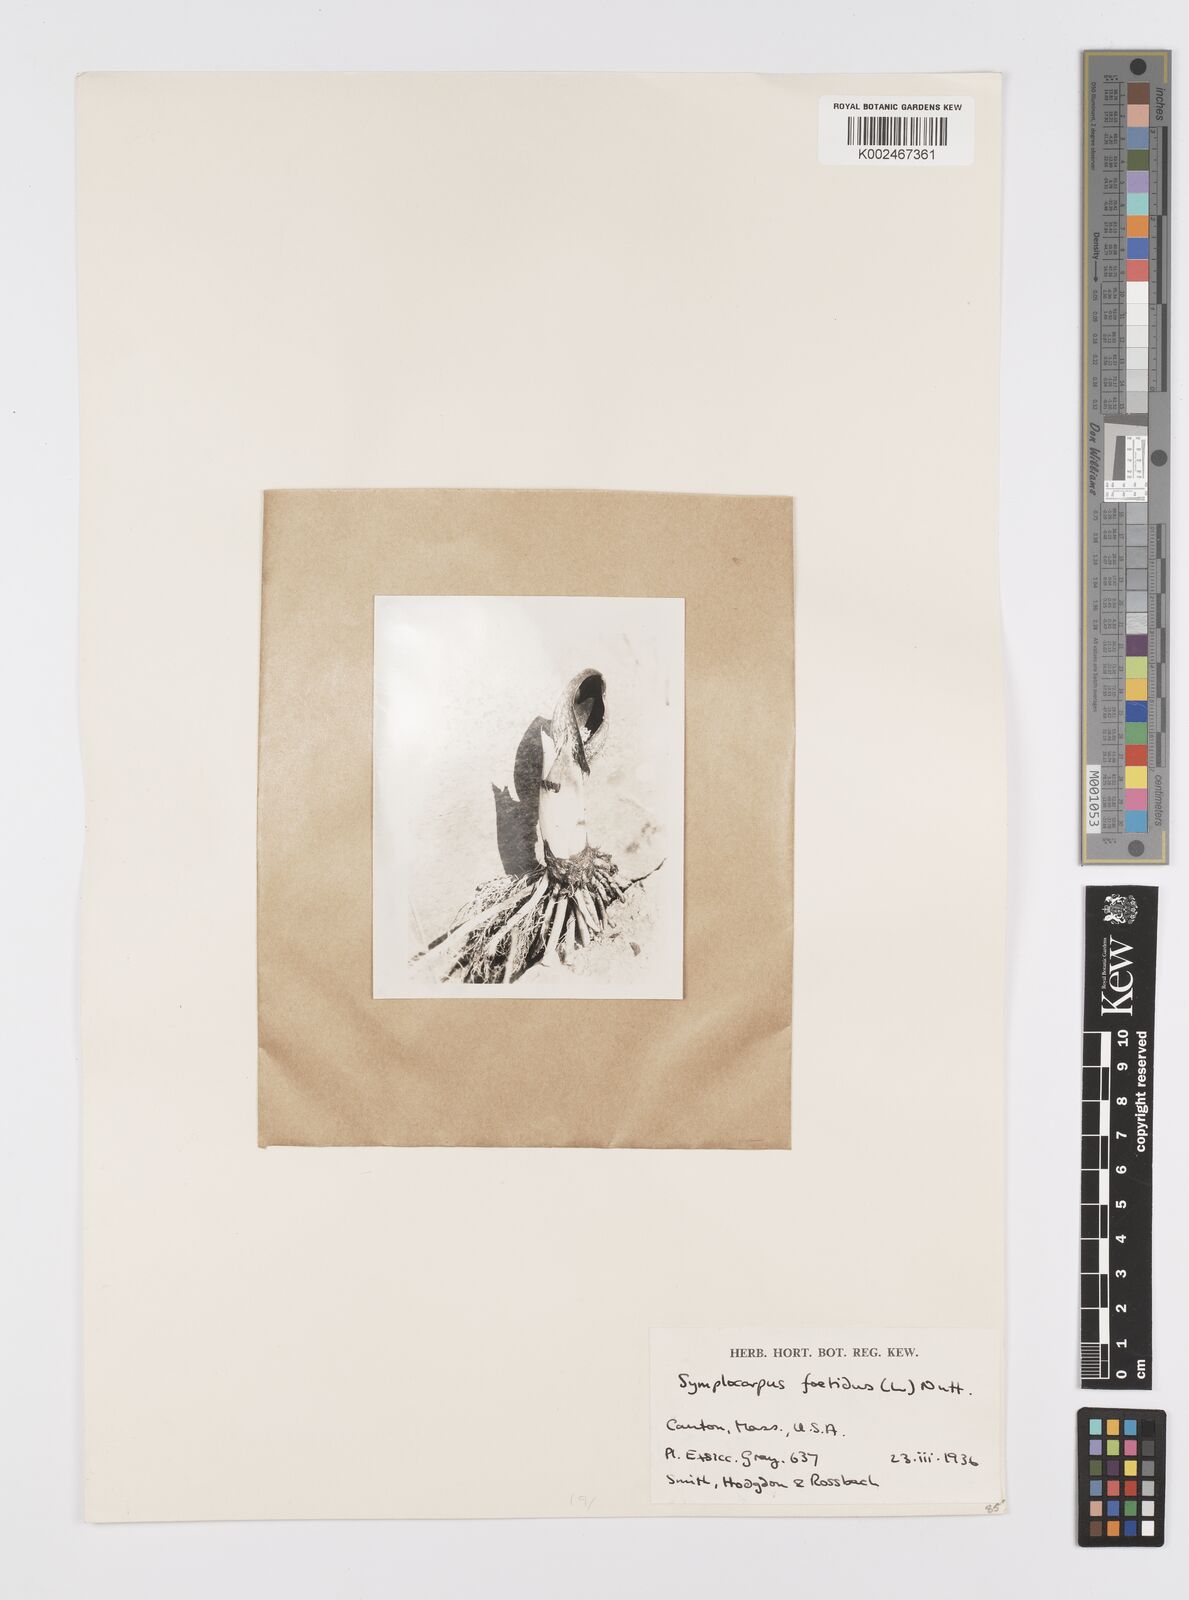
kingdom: Plantae
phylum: Tracheophyta
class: Liliopsida
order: Alismatales
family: Araceae
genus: Symplocarpus
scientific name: Symplocarpus foetidus
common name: Eastern skunk cabbage
